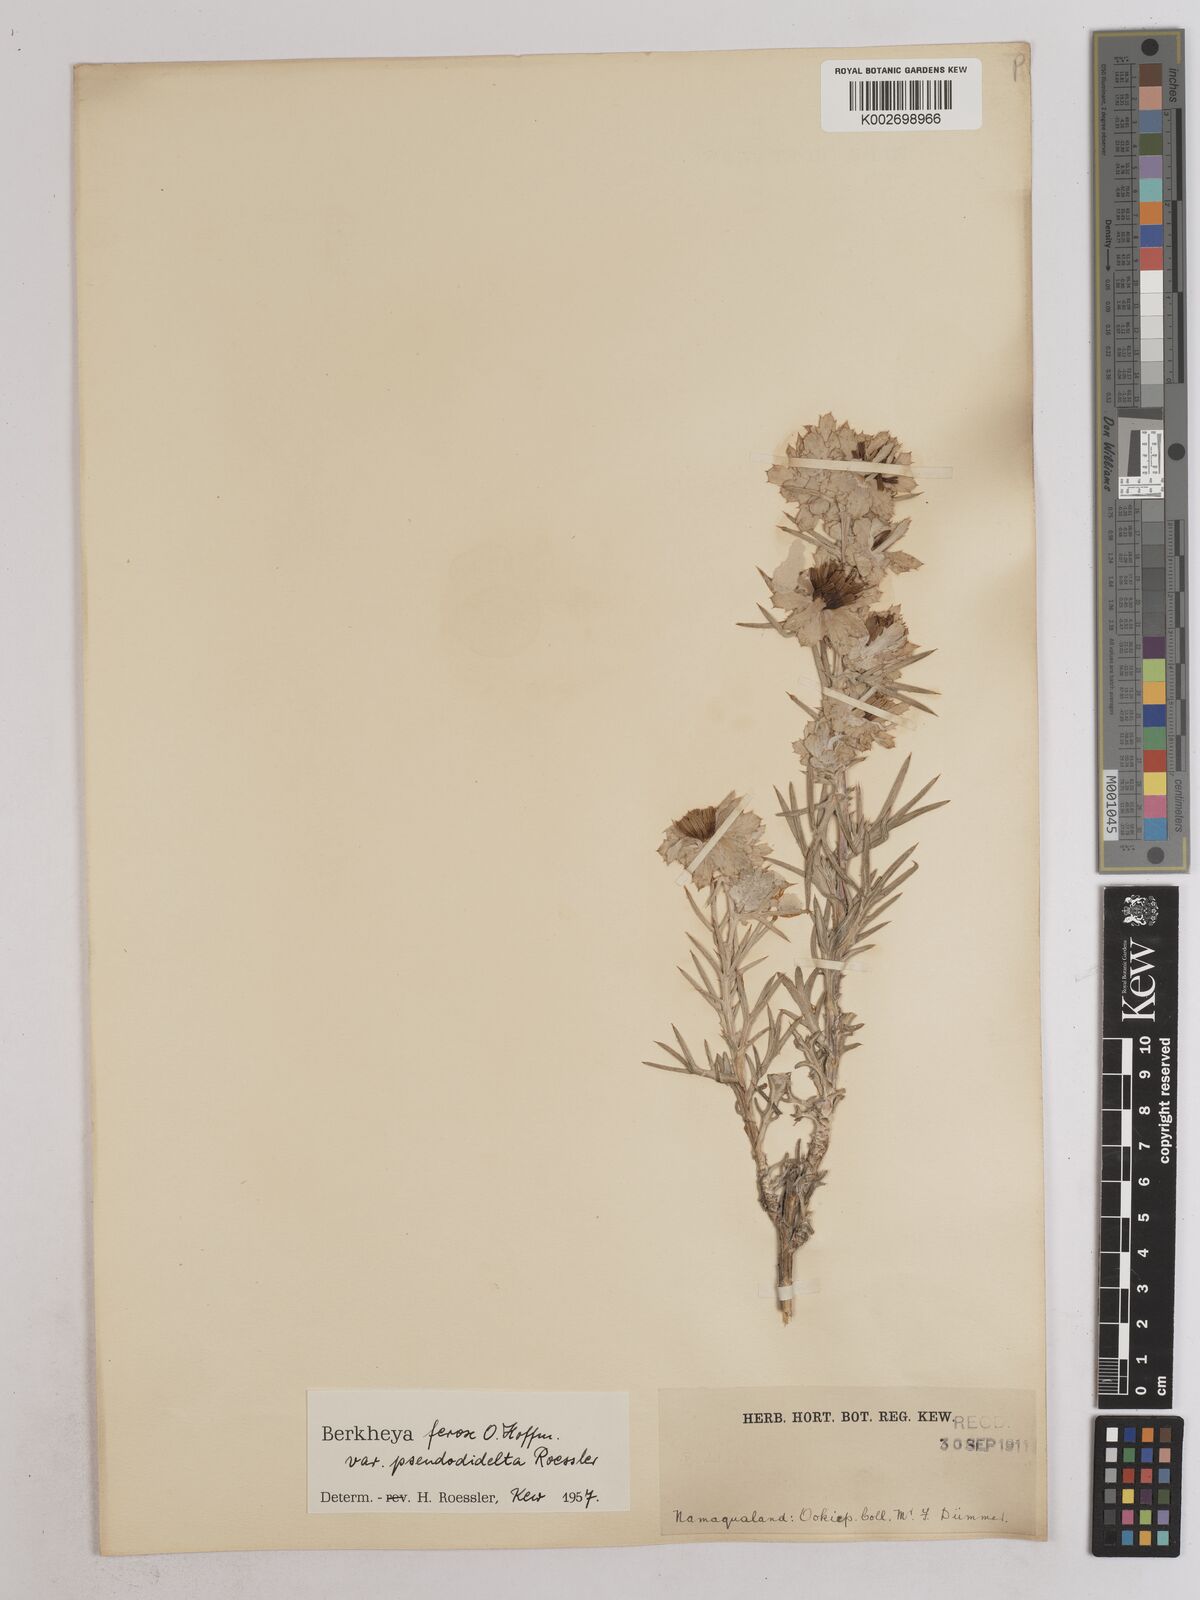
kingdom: Plantae
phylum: Tracheophyta
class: Magnoliopsida
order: Asterales
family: Asteraceae
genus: Berkheya
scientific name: Berkheya ferox
